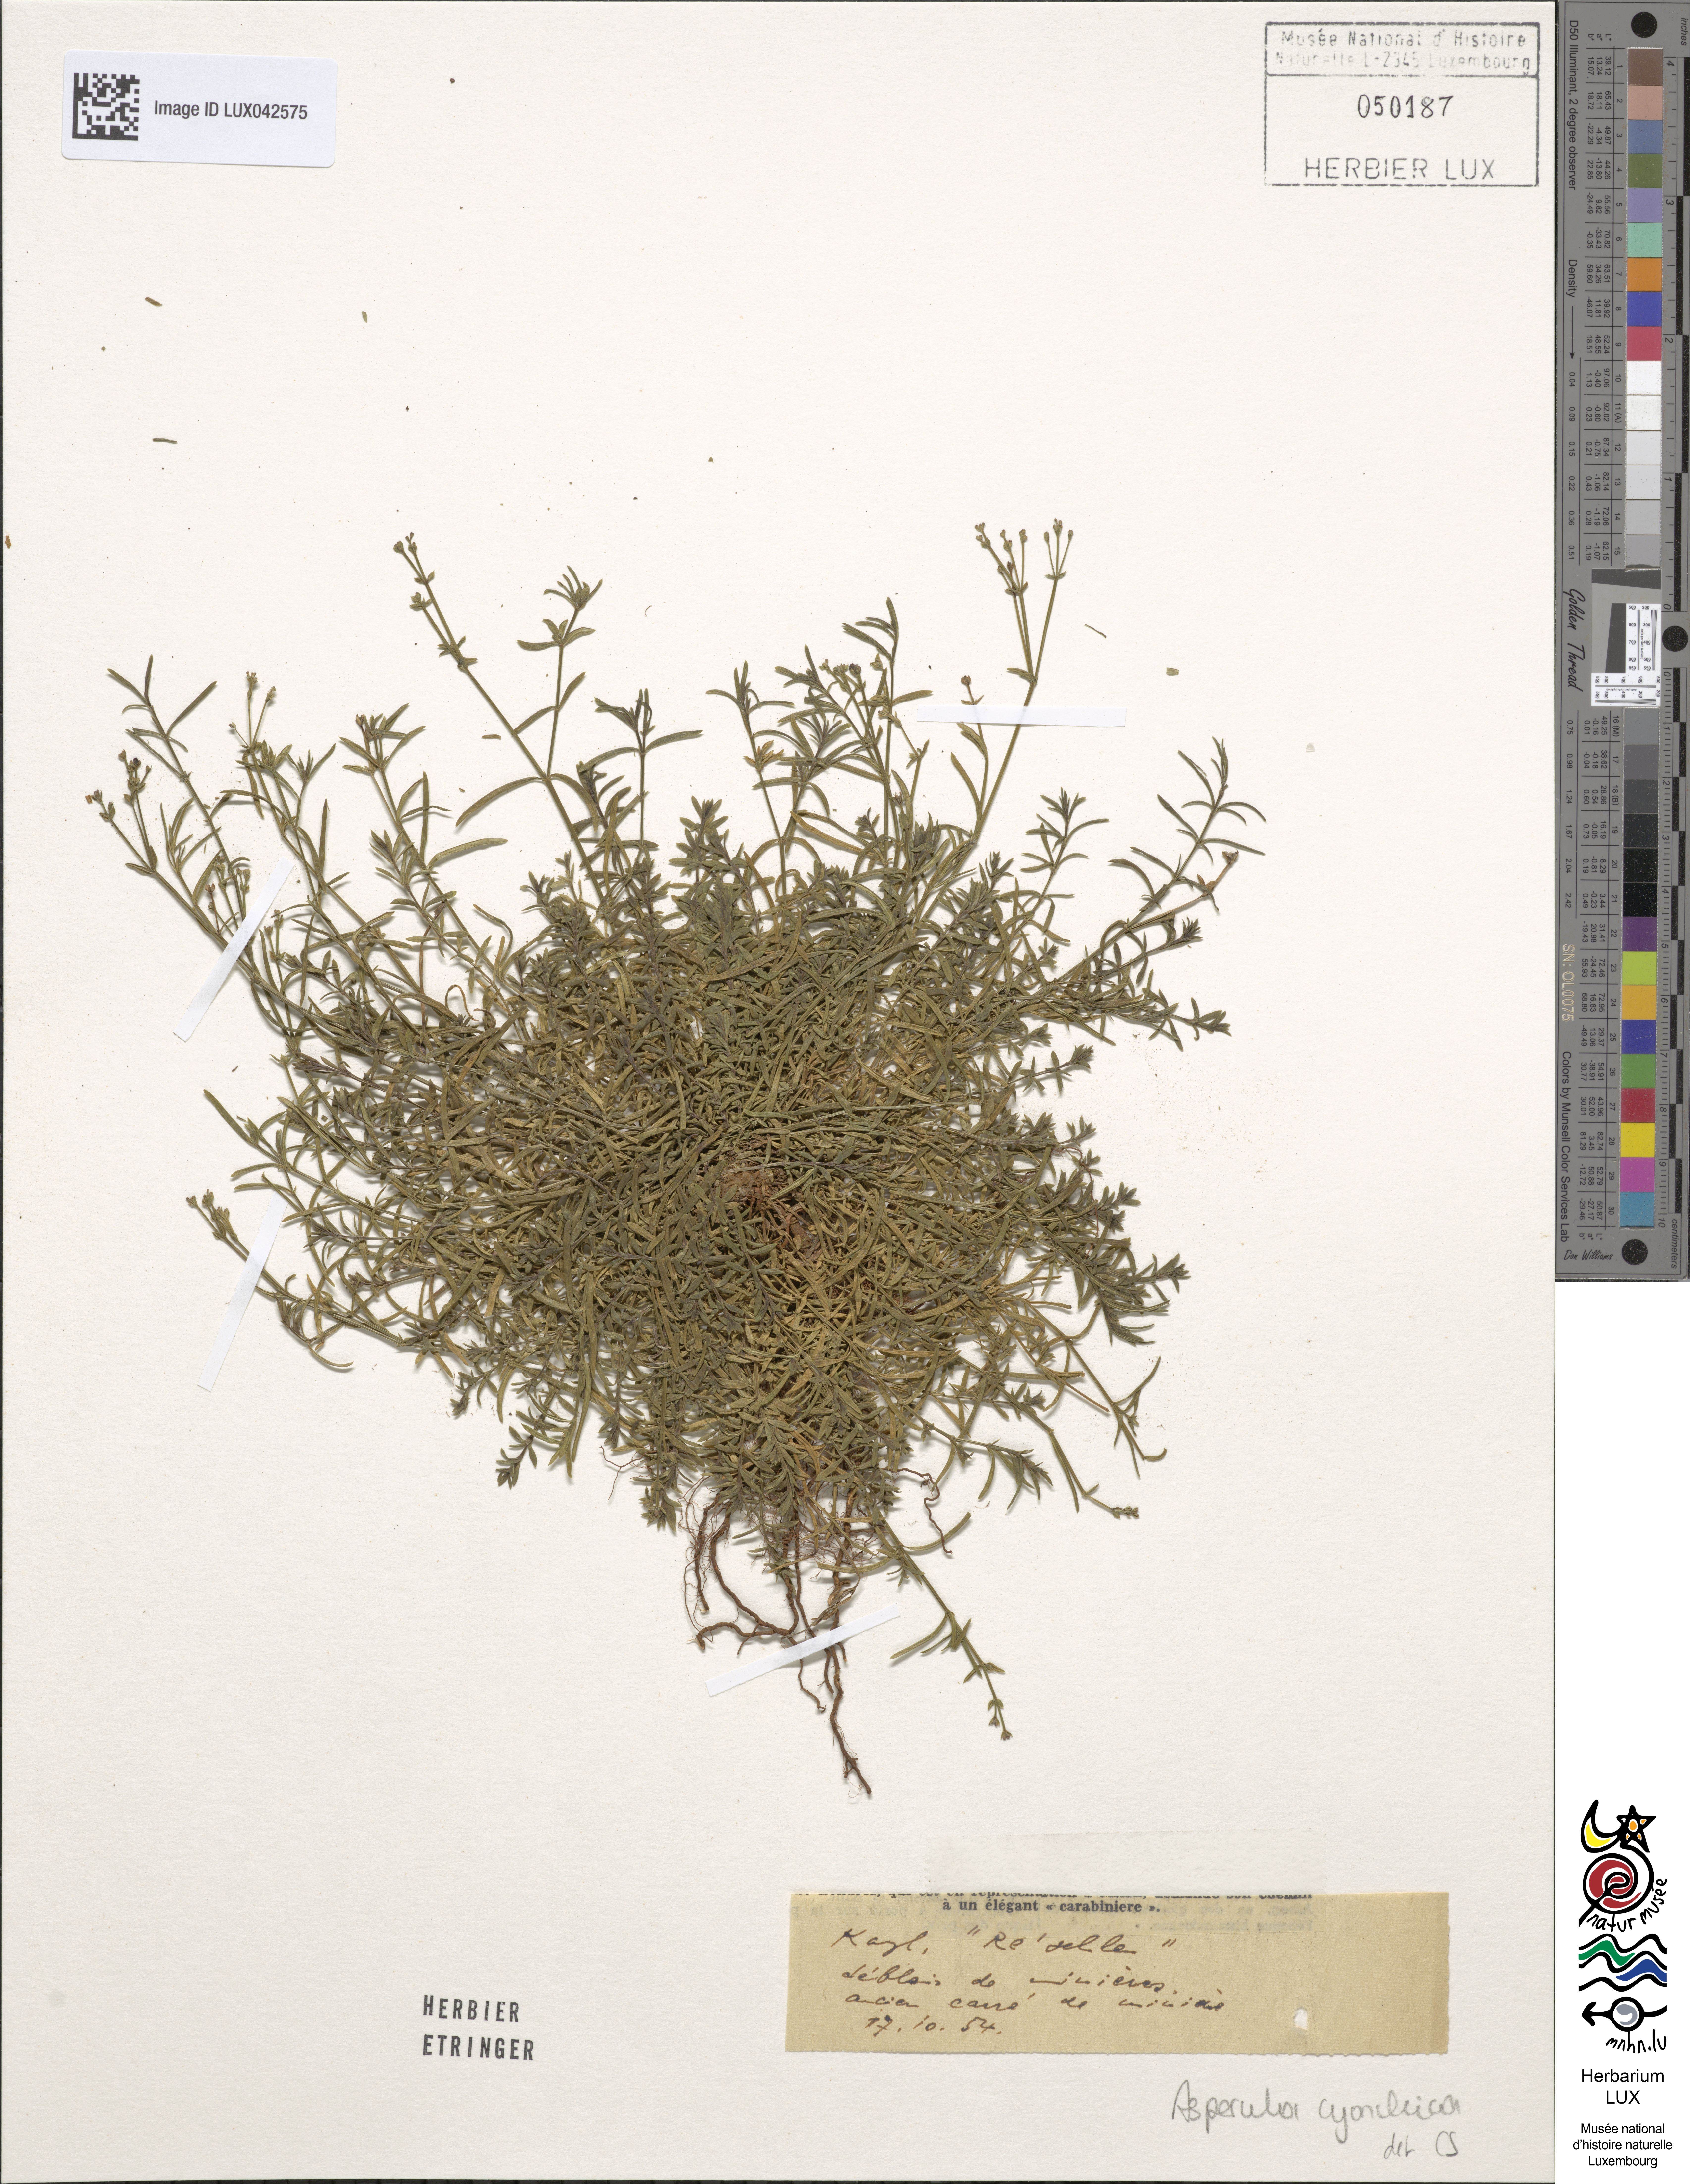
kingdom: Plantae
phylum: Tracheophyta
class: Magnoliopsida
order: Gentianales
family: Rubiaceae
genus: Cynanchica
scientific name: Cynanchica pyrenaica
